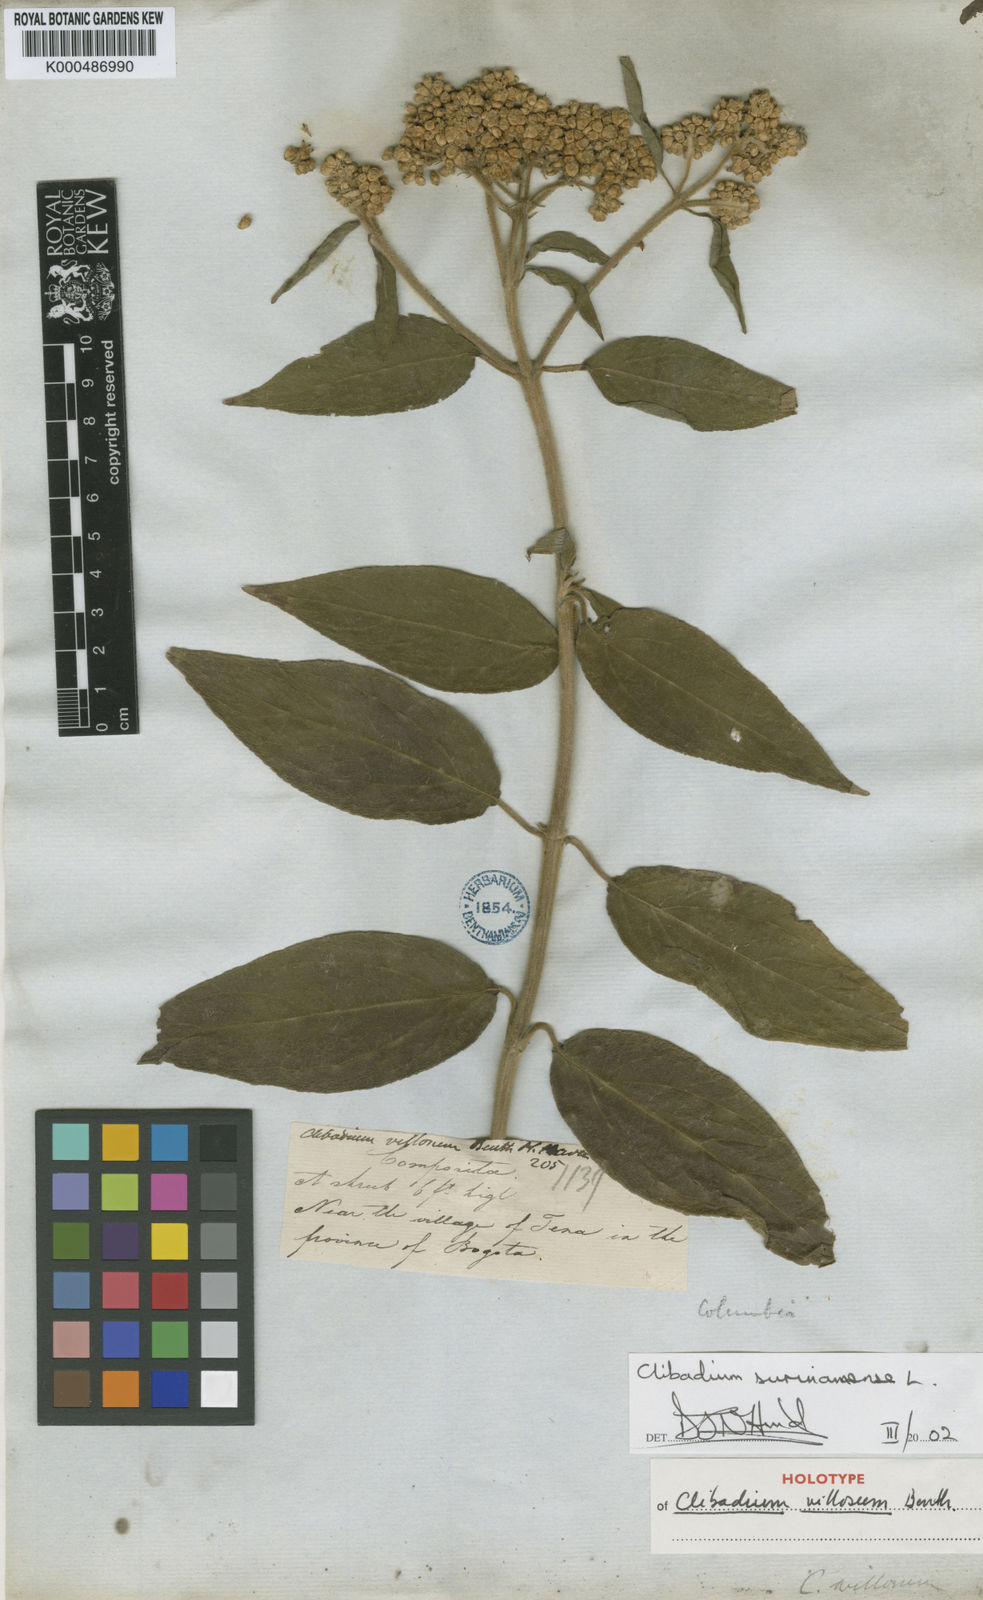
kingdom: Plantae
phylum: Tracheophyta
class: Magnoliopsida
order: Asterales
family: Asteraceae
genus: Clibadium
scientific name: Clibadium surinamense
